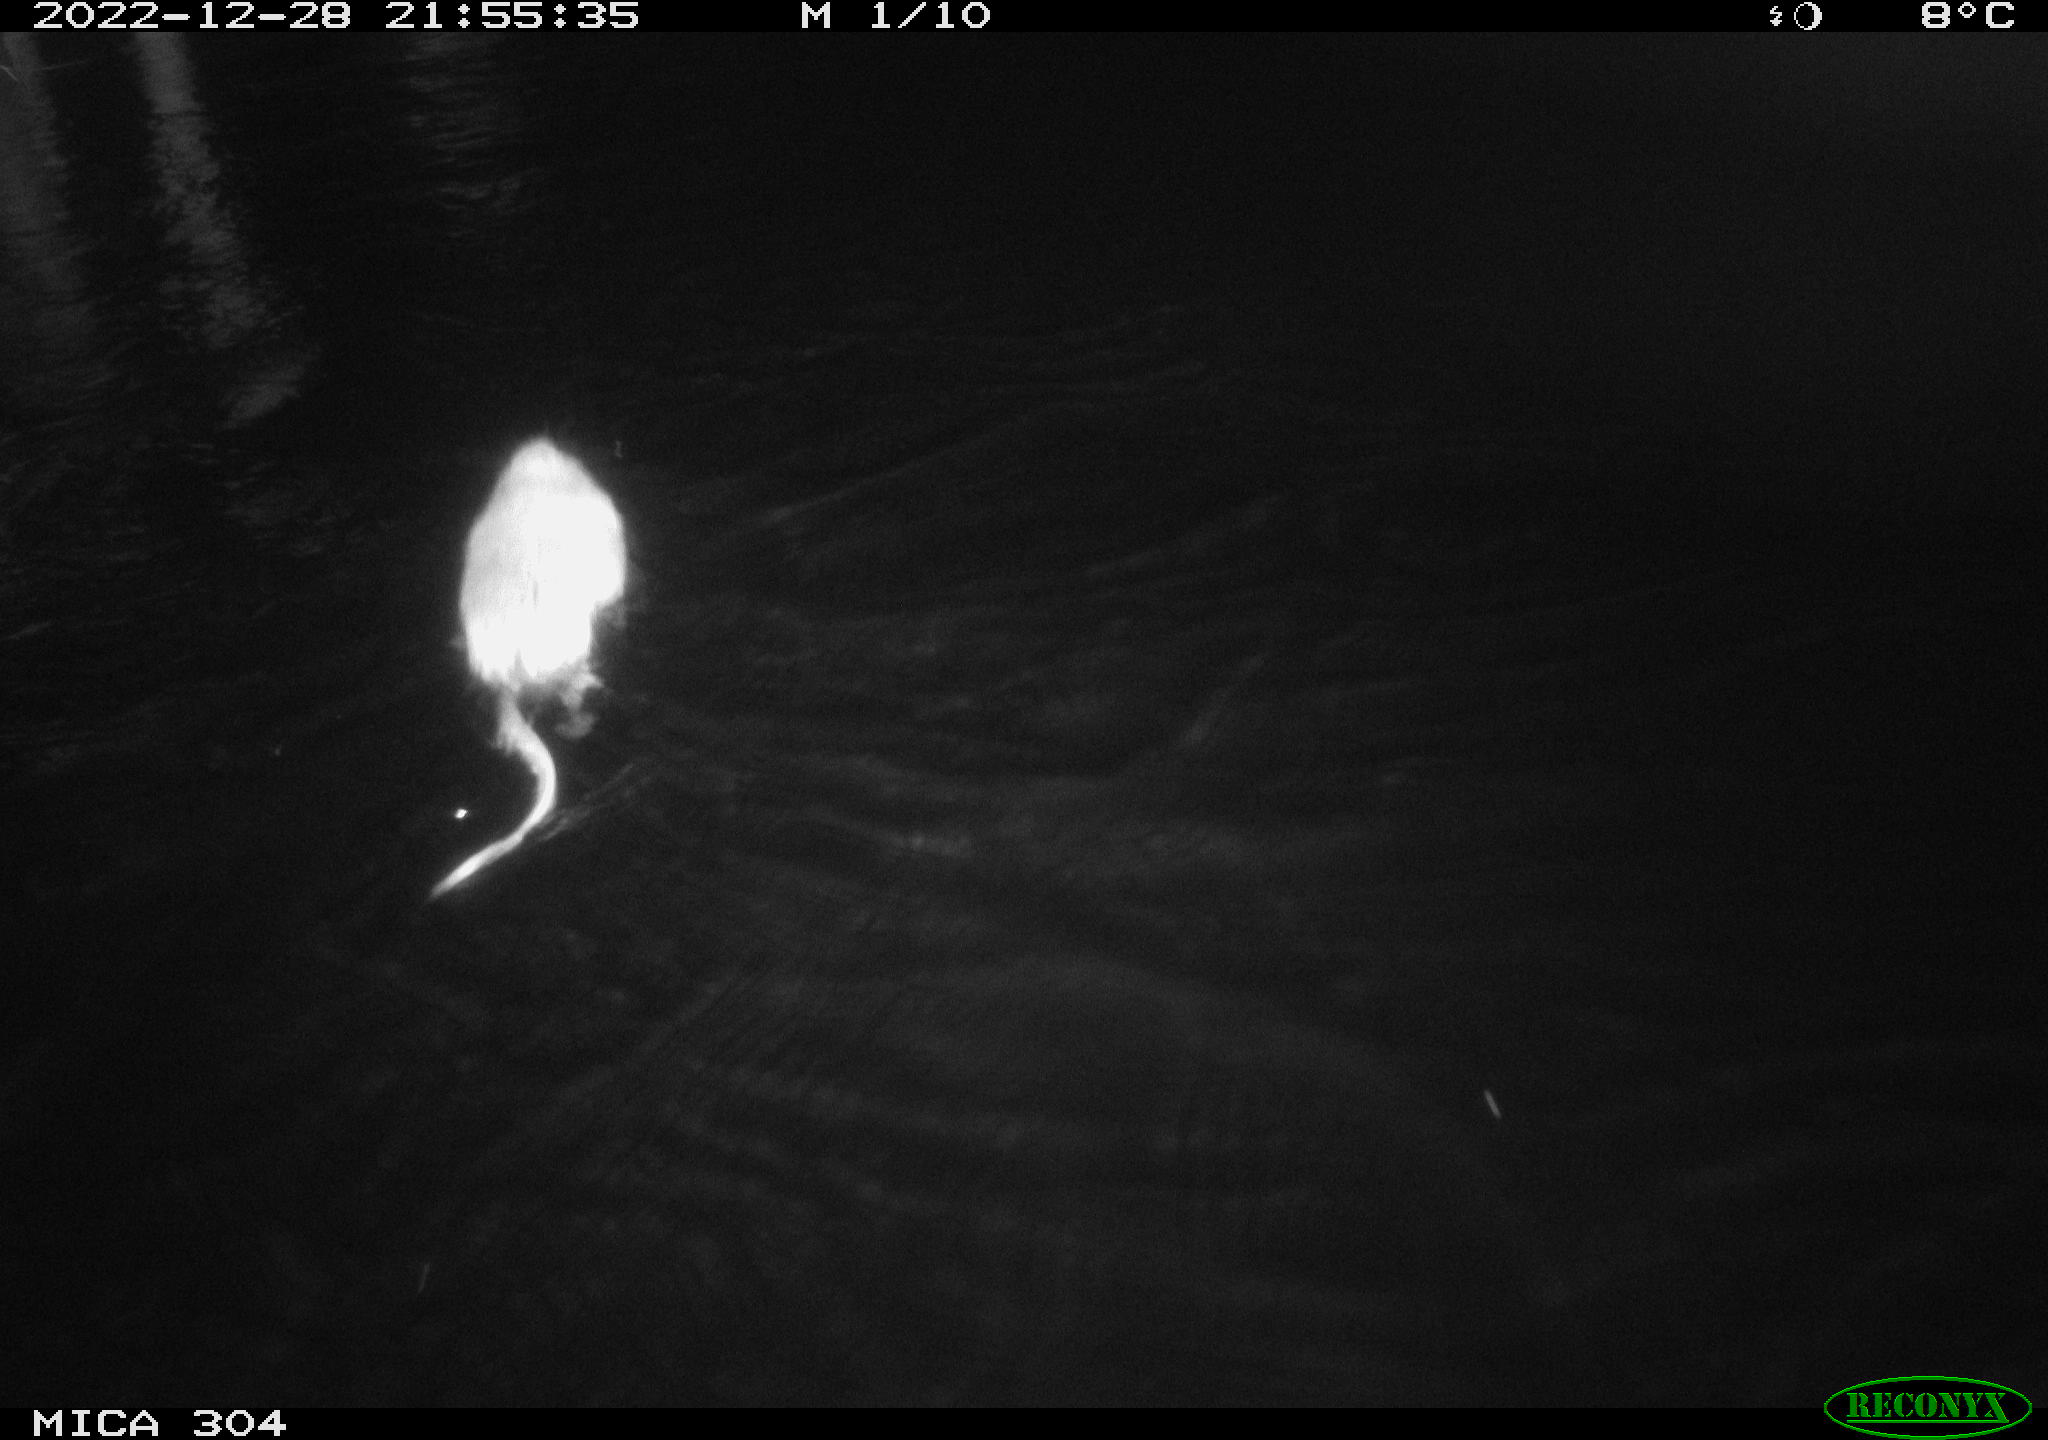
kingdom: Animalia
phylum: Chordata
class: Mammalia
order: Rodentia
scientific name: Rodentia
